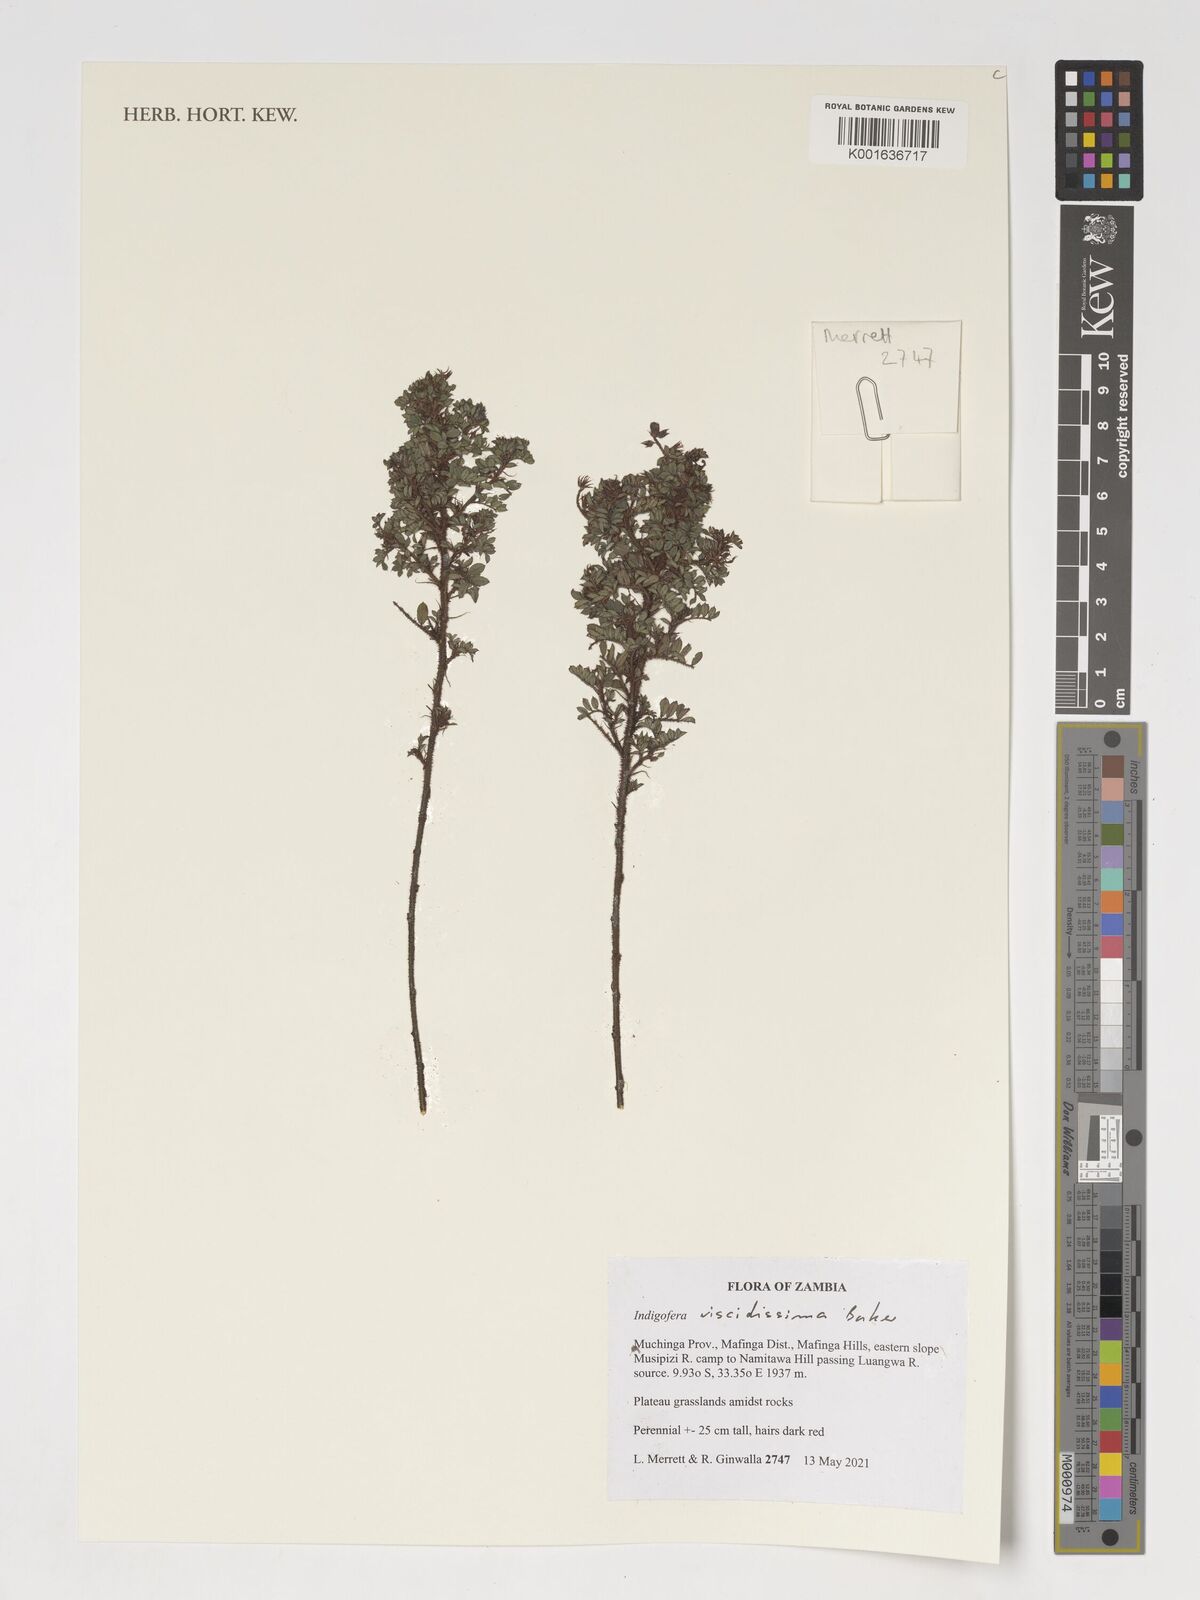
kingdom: Plantae
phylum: Tracheophyta
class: Magnoliopsida
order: Fabales
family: Fabaceae
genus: Indigofera
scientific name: Indigofera viscidissima
